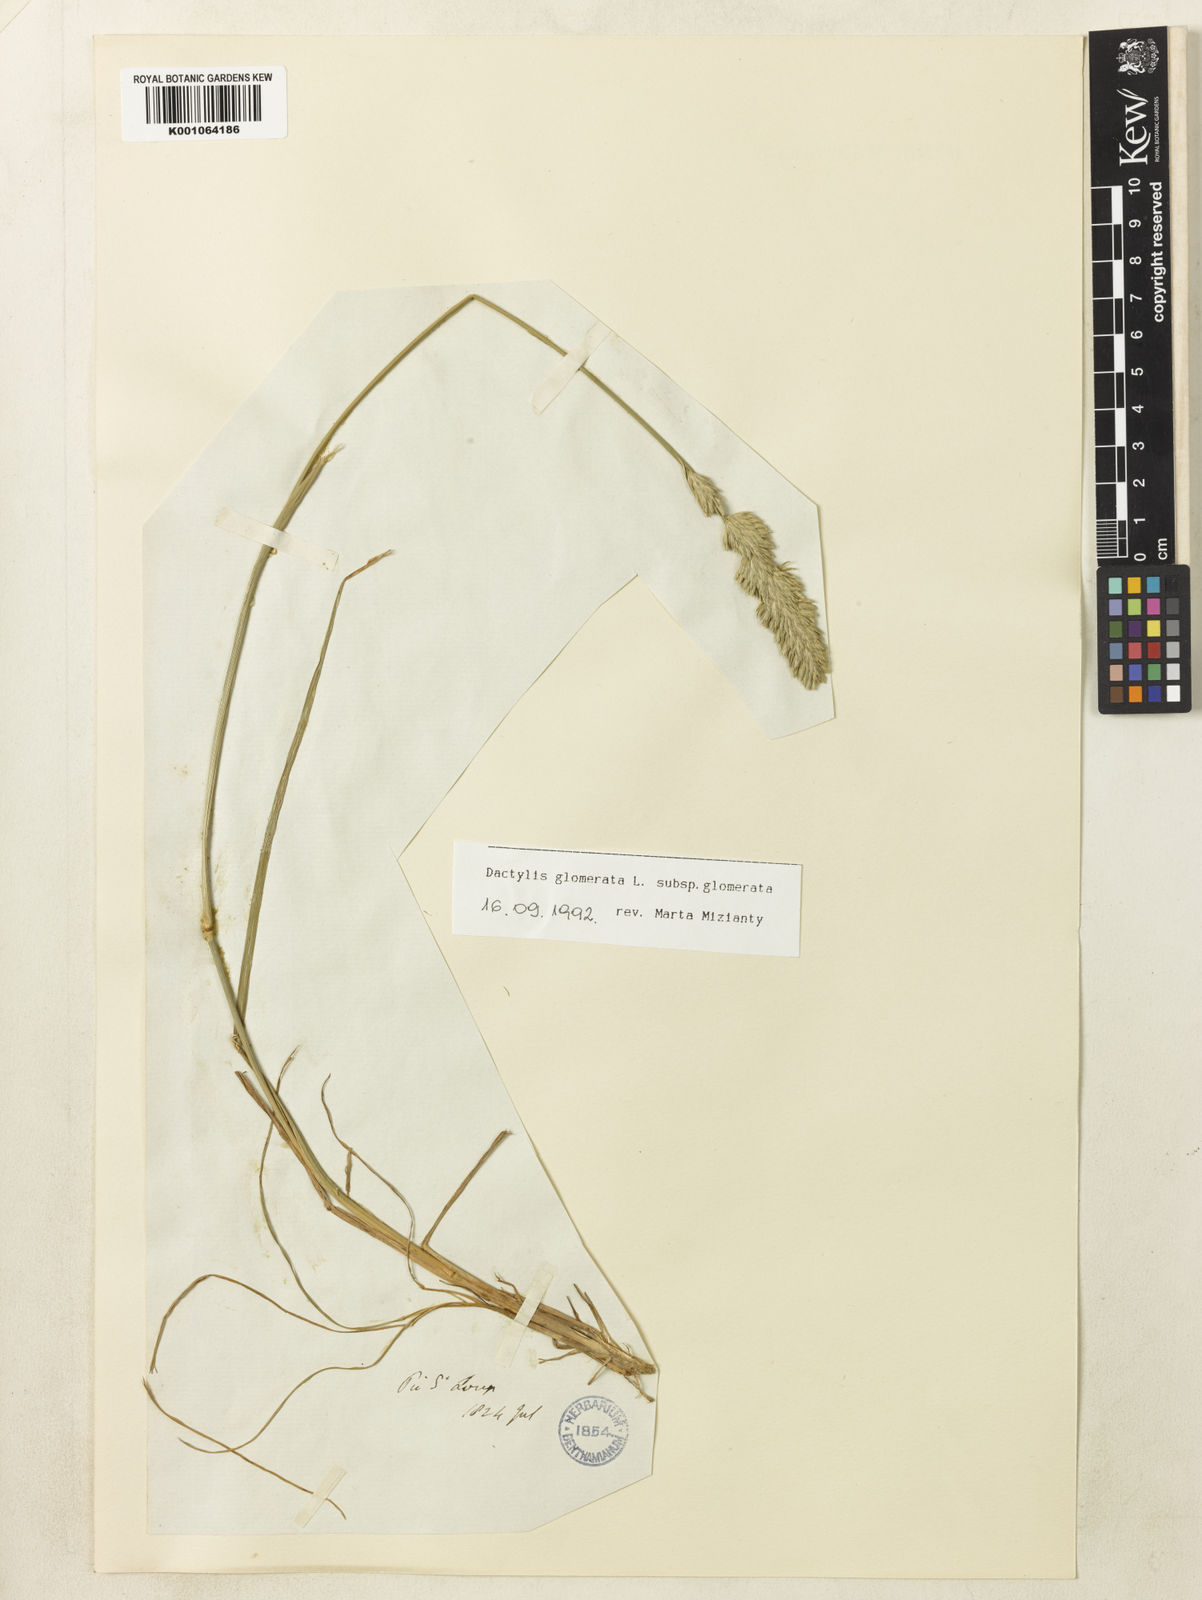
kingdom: Plantae
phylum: Tracheophyta
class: Liliopsida
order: Poales
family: Poaceae
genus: Dactylis
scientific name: Dactylis glomerata
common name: Orchardgrass
